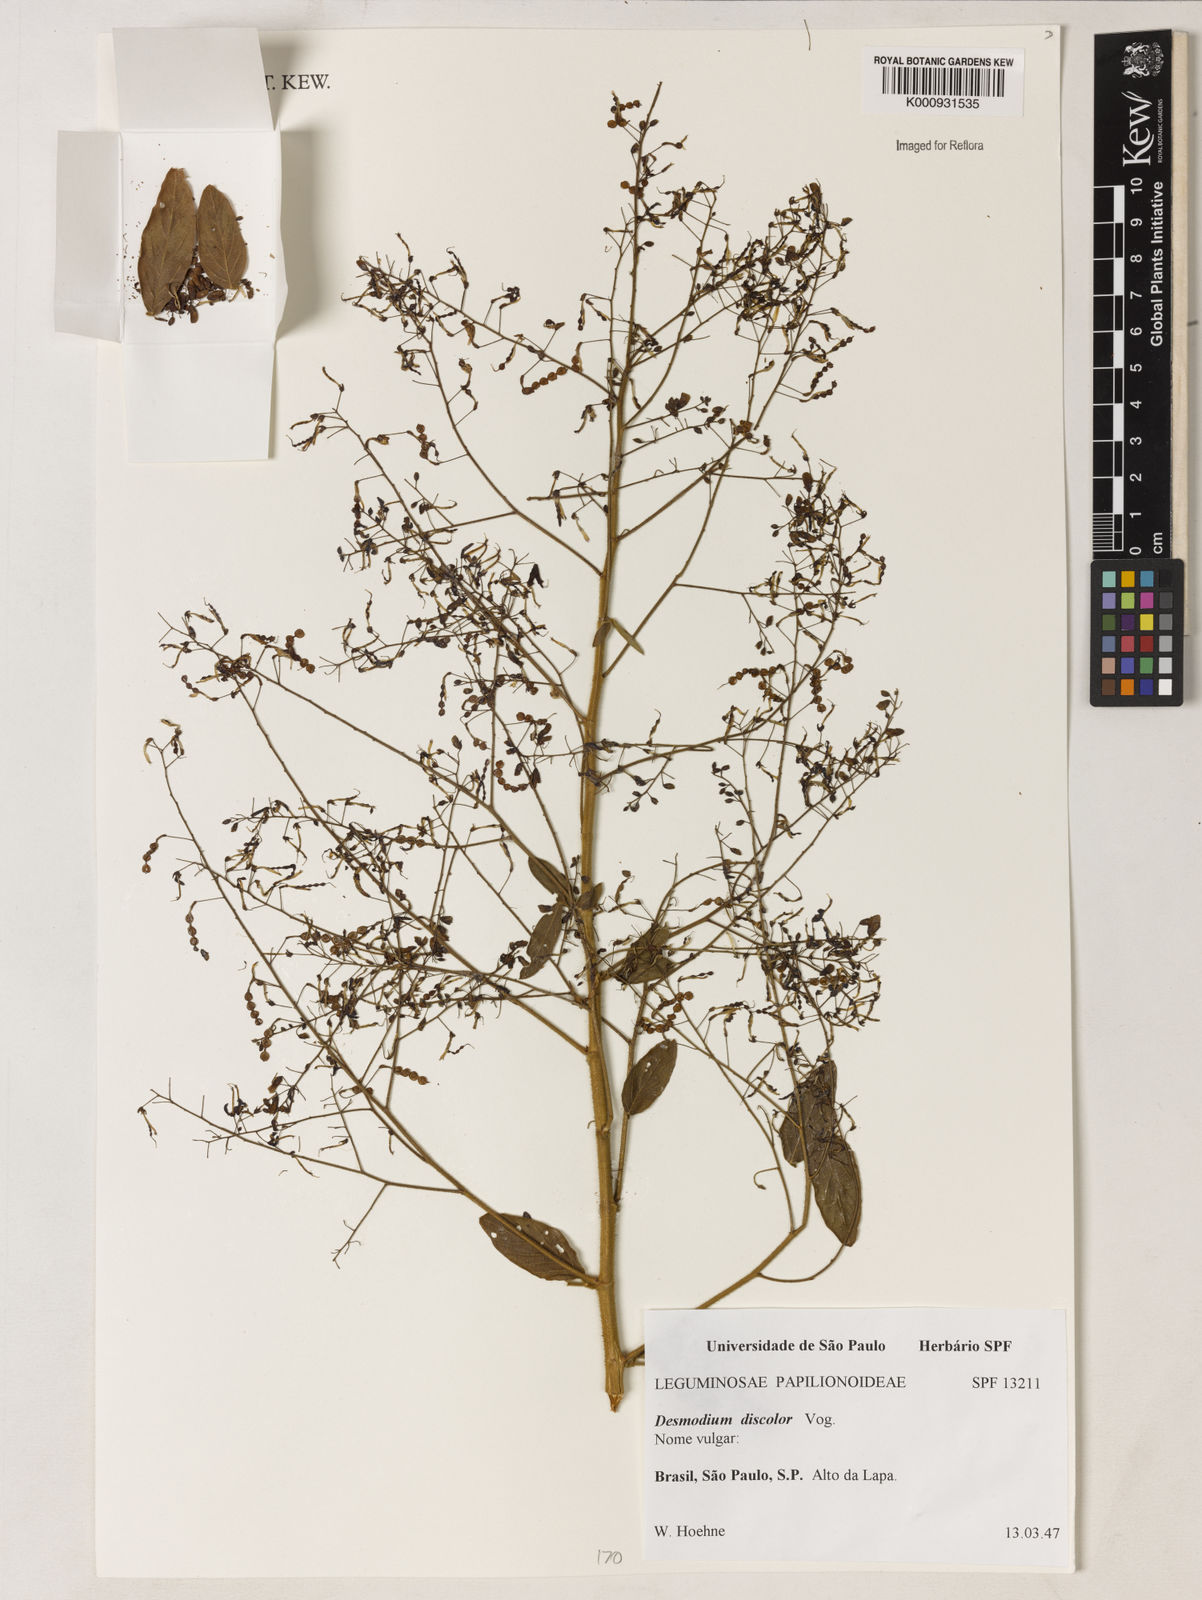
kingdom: Plantae
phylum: Tracheophyta
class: Magnoliopsida
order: Fabales
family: Fabaceae
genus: Desmodium
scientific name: Desmodium subsecundum
